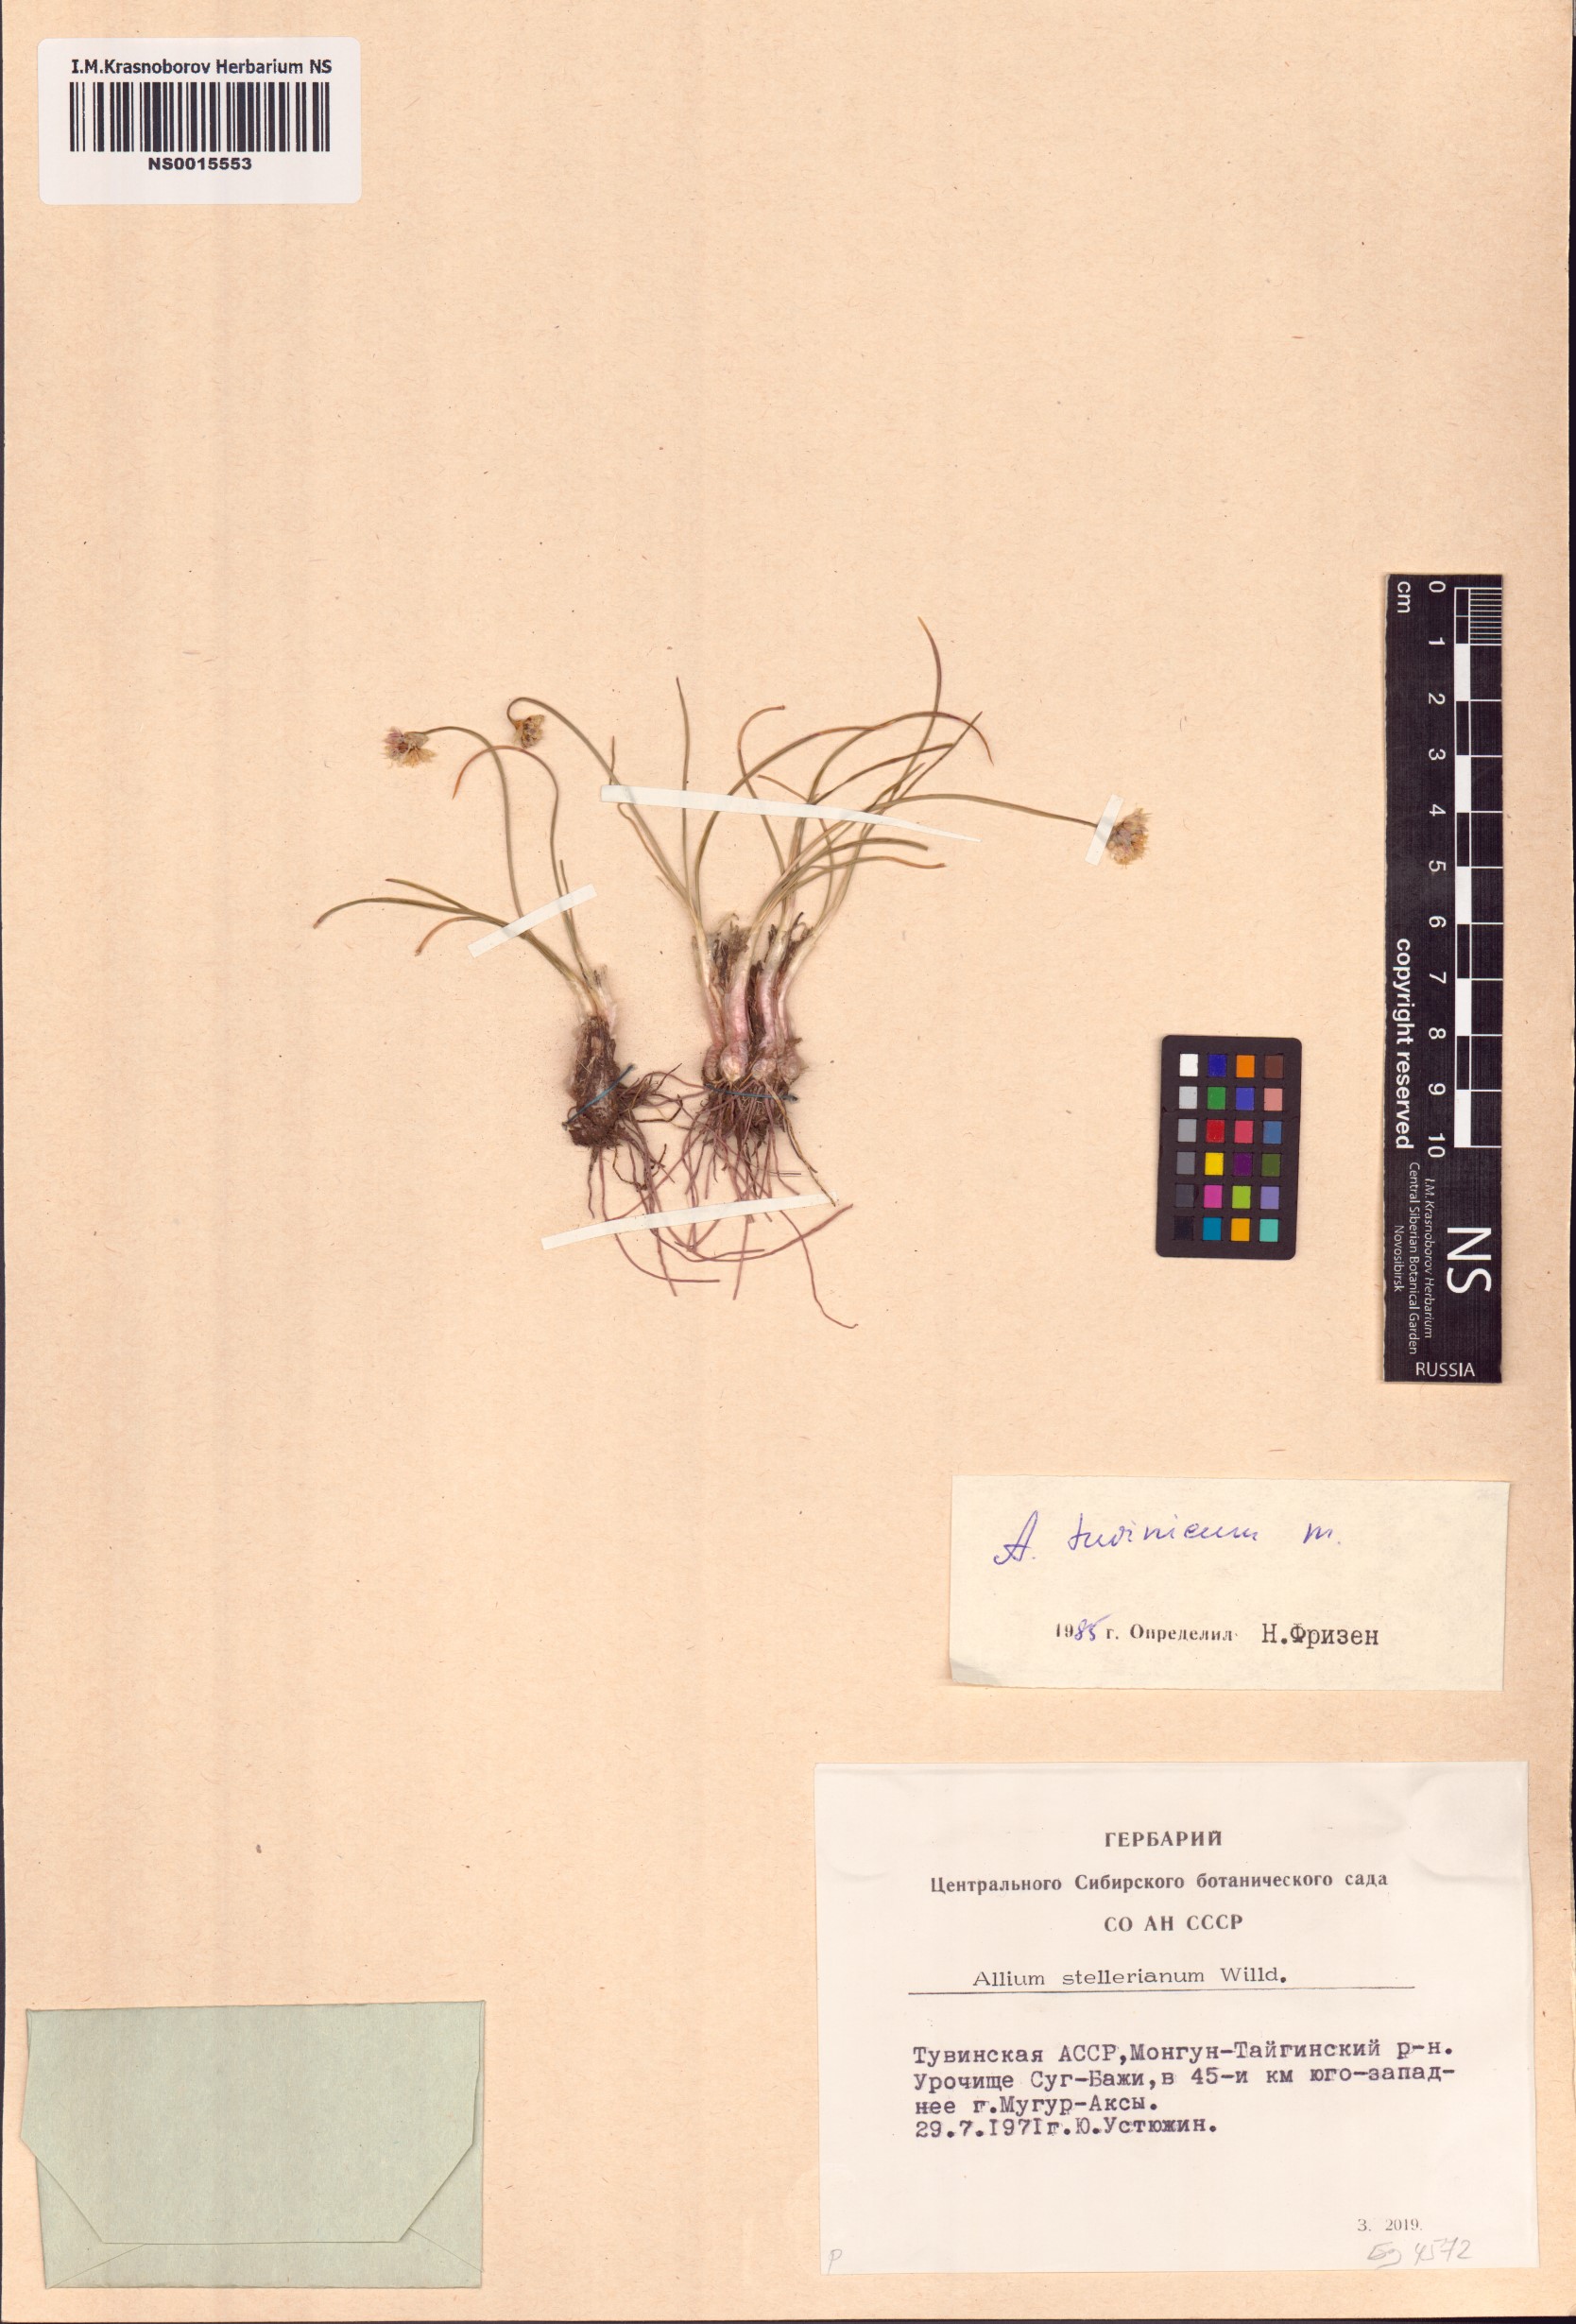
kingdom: Plantae
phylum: Tracheophyta
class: Liliopsida
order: Asparagales
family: Amaryllidaceae
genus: Allium
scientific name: Allium tuvinicum
